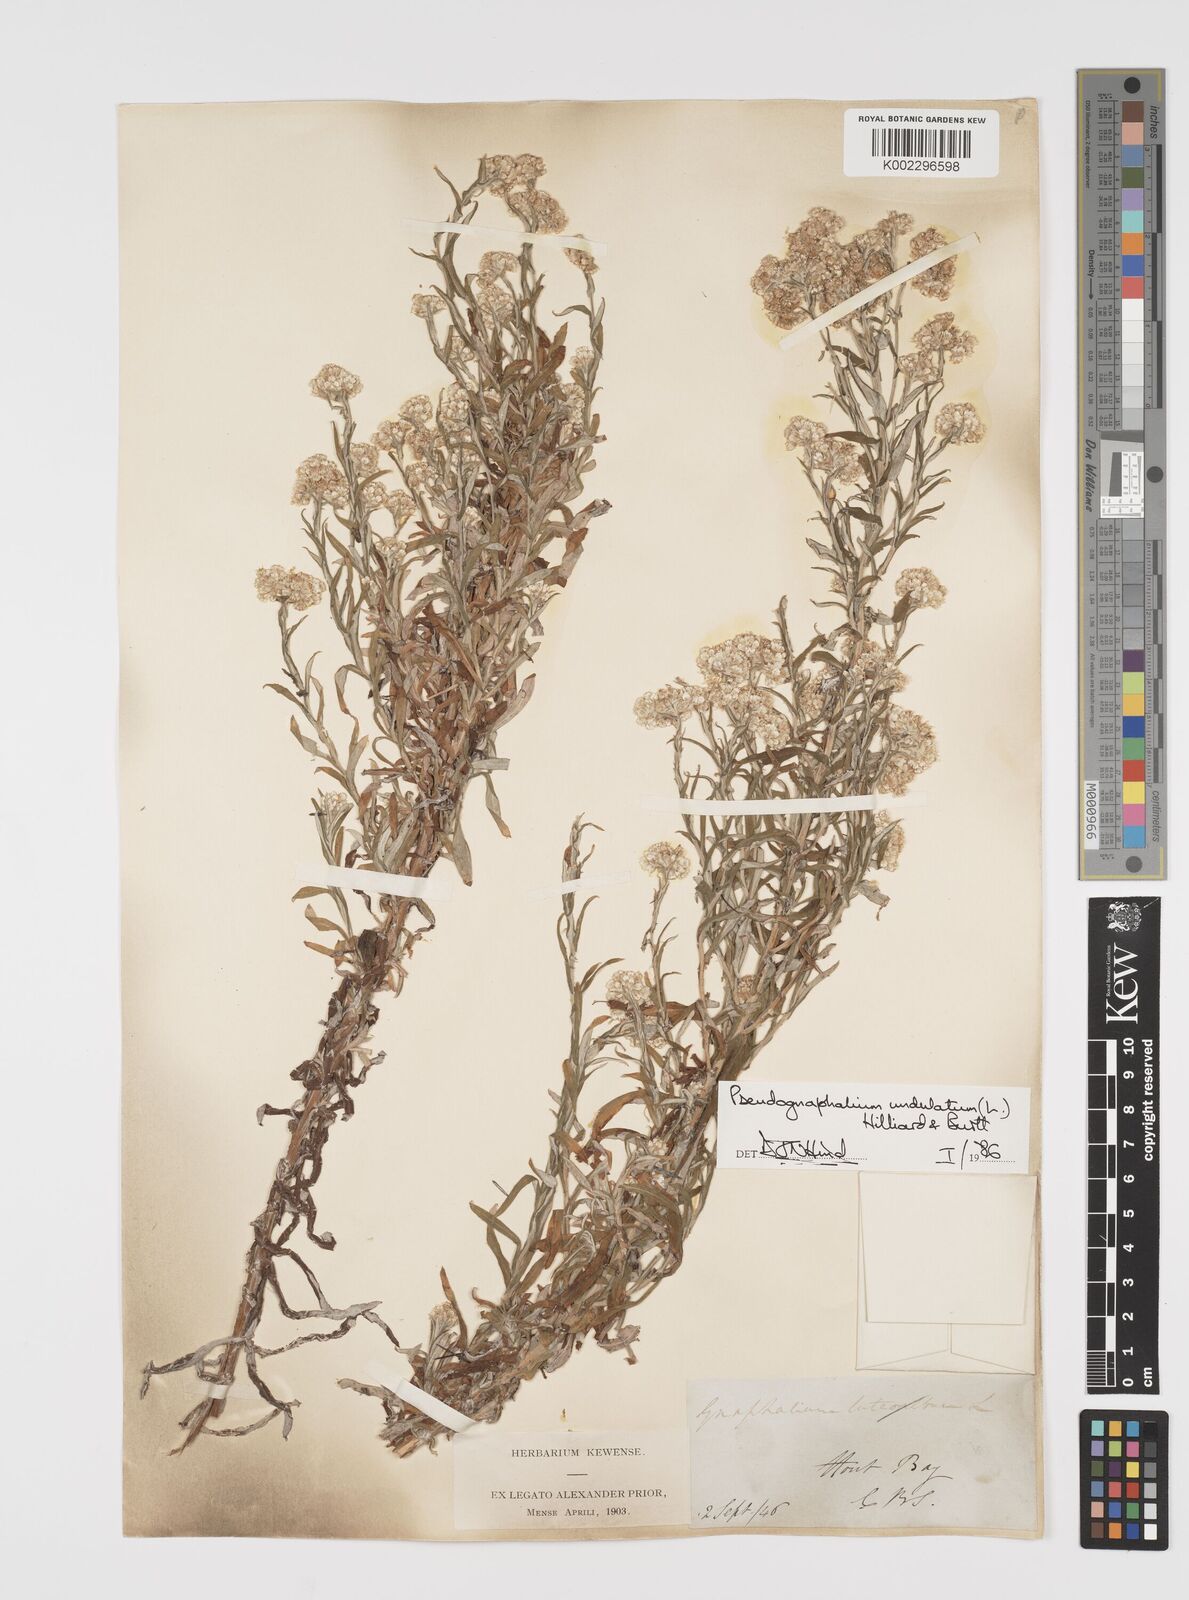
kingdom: Plantae
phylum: Tracheophyta
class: Magnoliopsida
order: Asterales
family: Asteraceae
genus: Pseudognaphalium
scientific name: Pseudognaphalium undulatum
